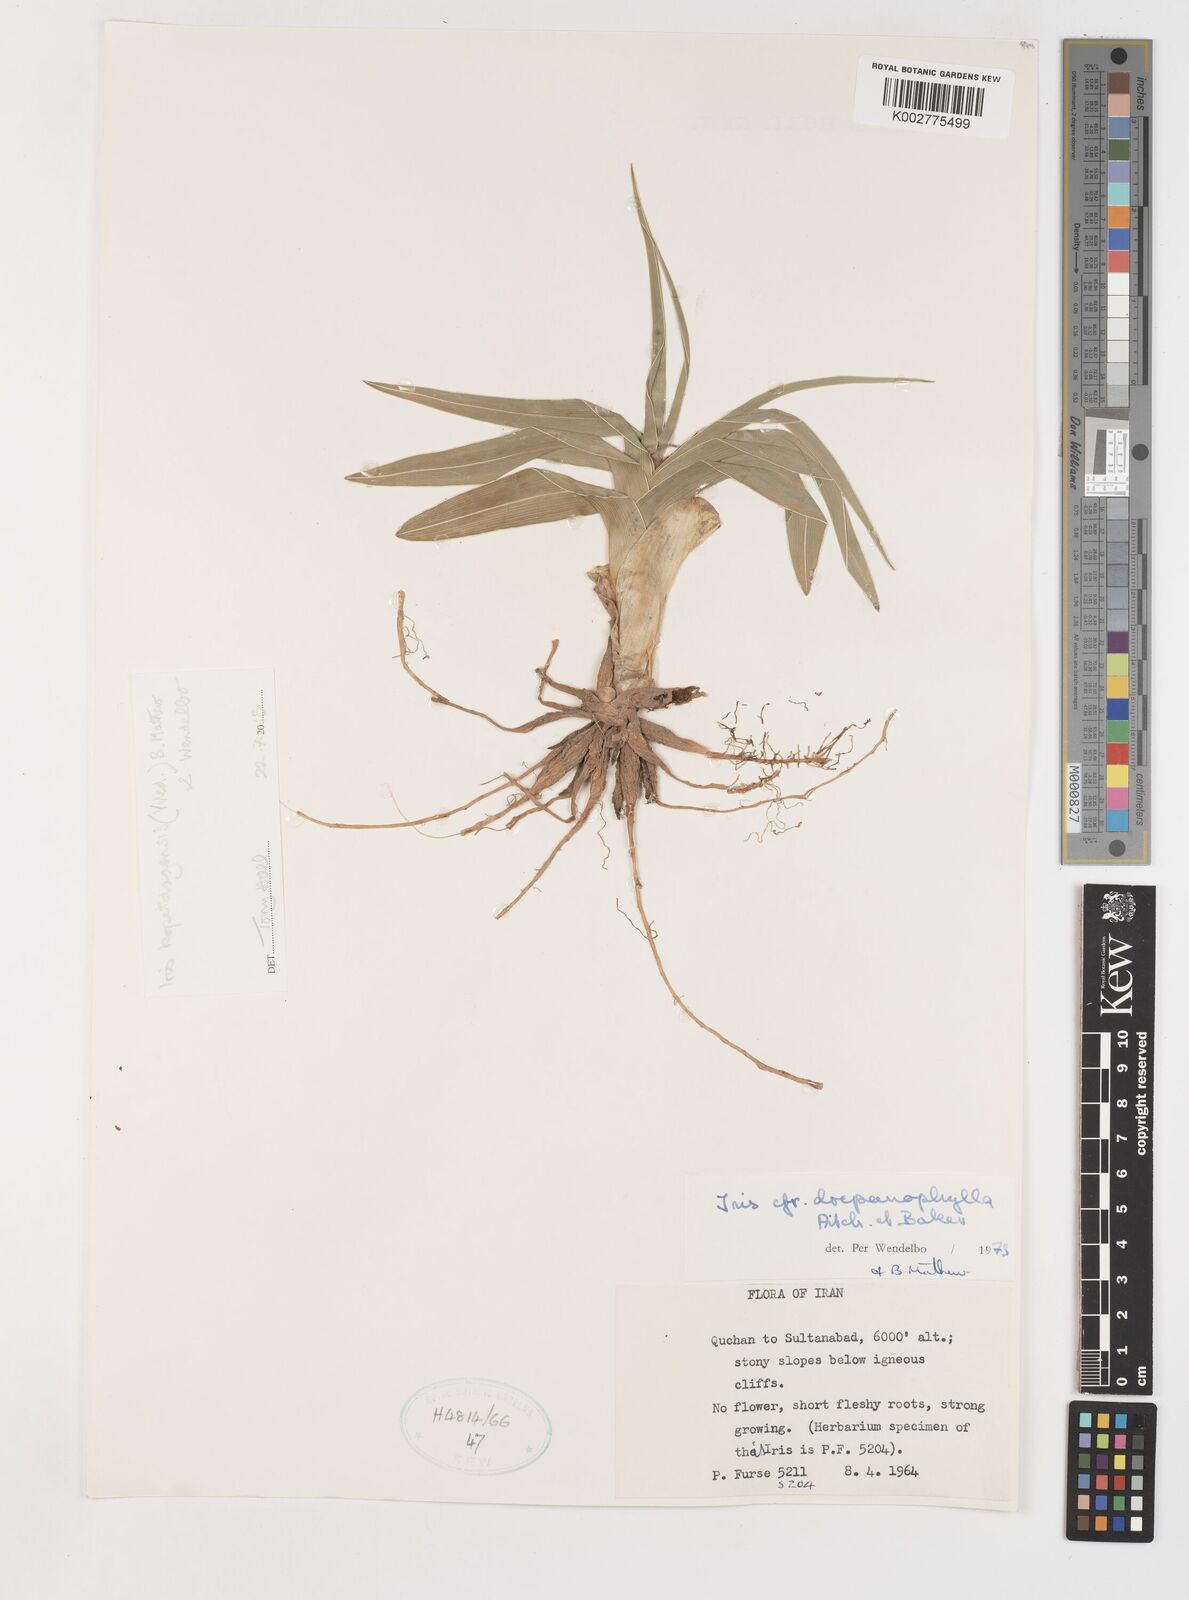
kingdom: Plantae
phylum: Tracheophyta
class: Liliopsida
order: Asparagales
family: Iridaceae
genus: Iris
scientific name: Iris kopetdagensis
